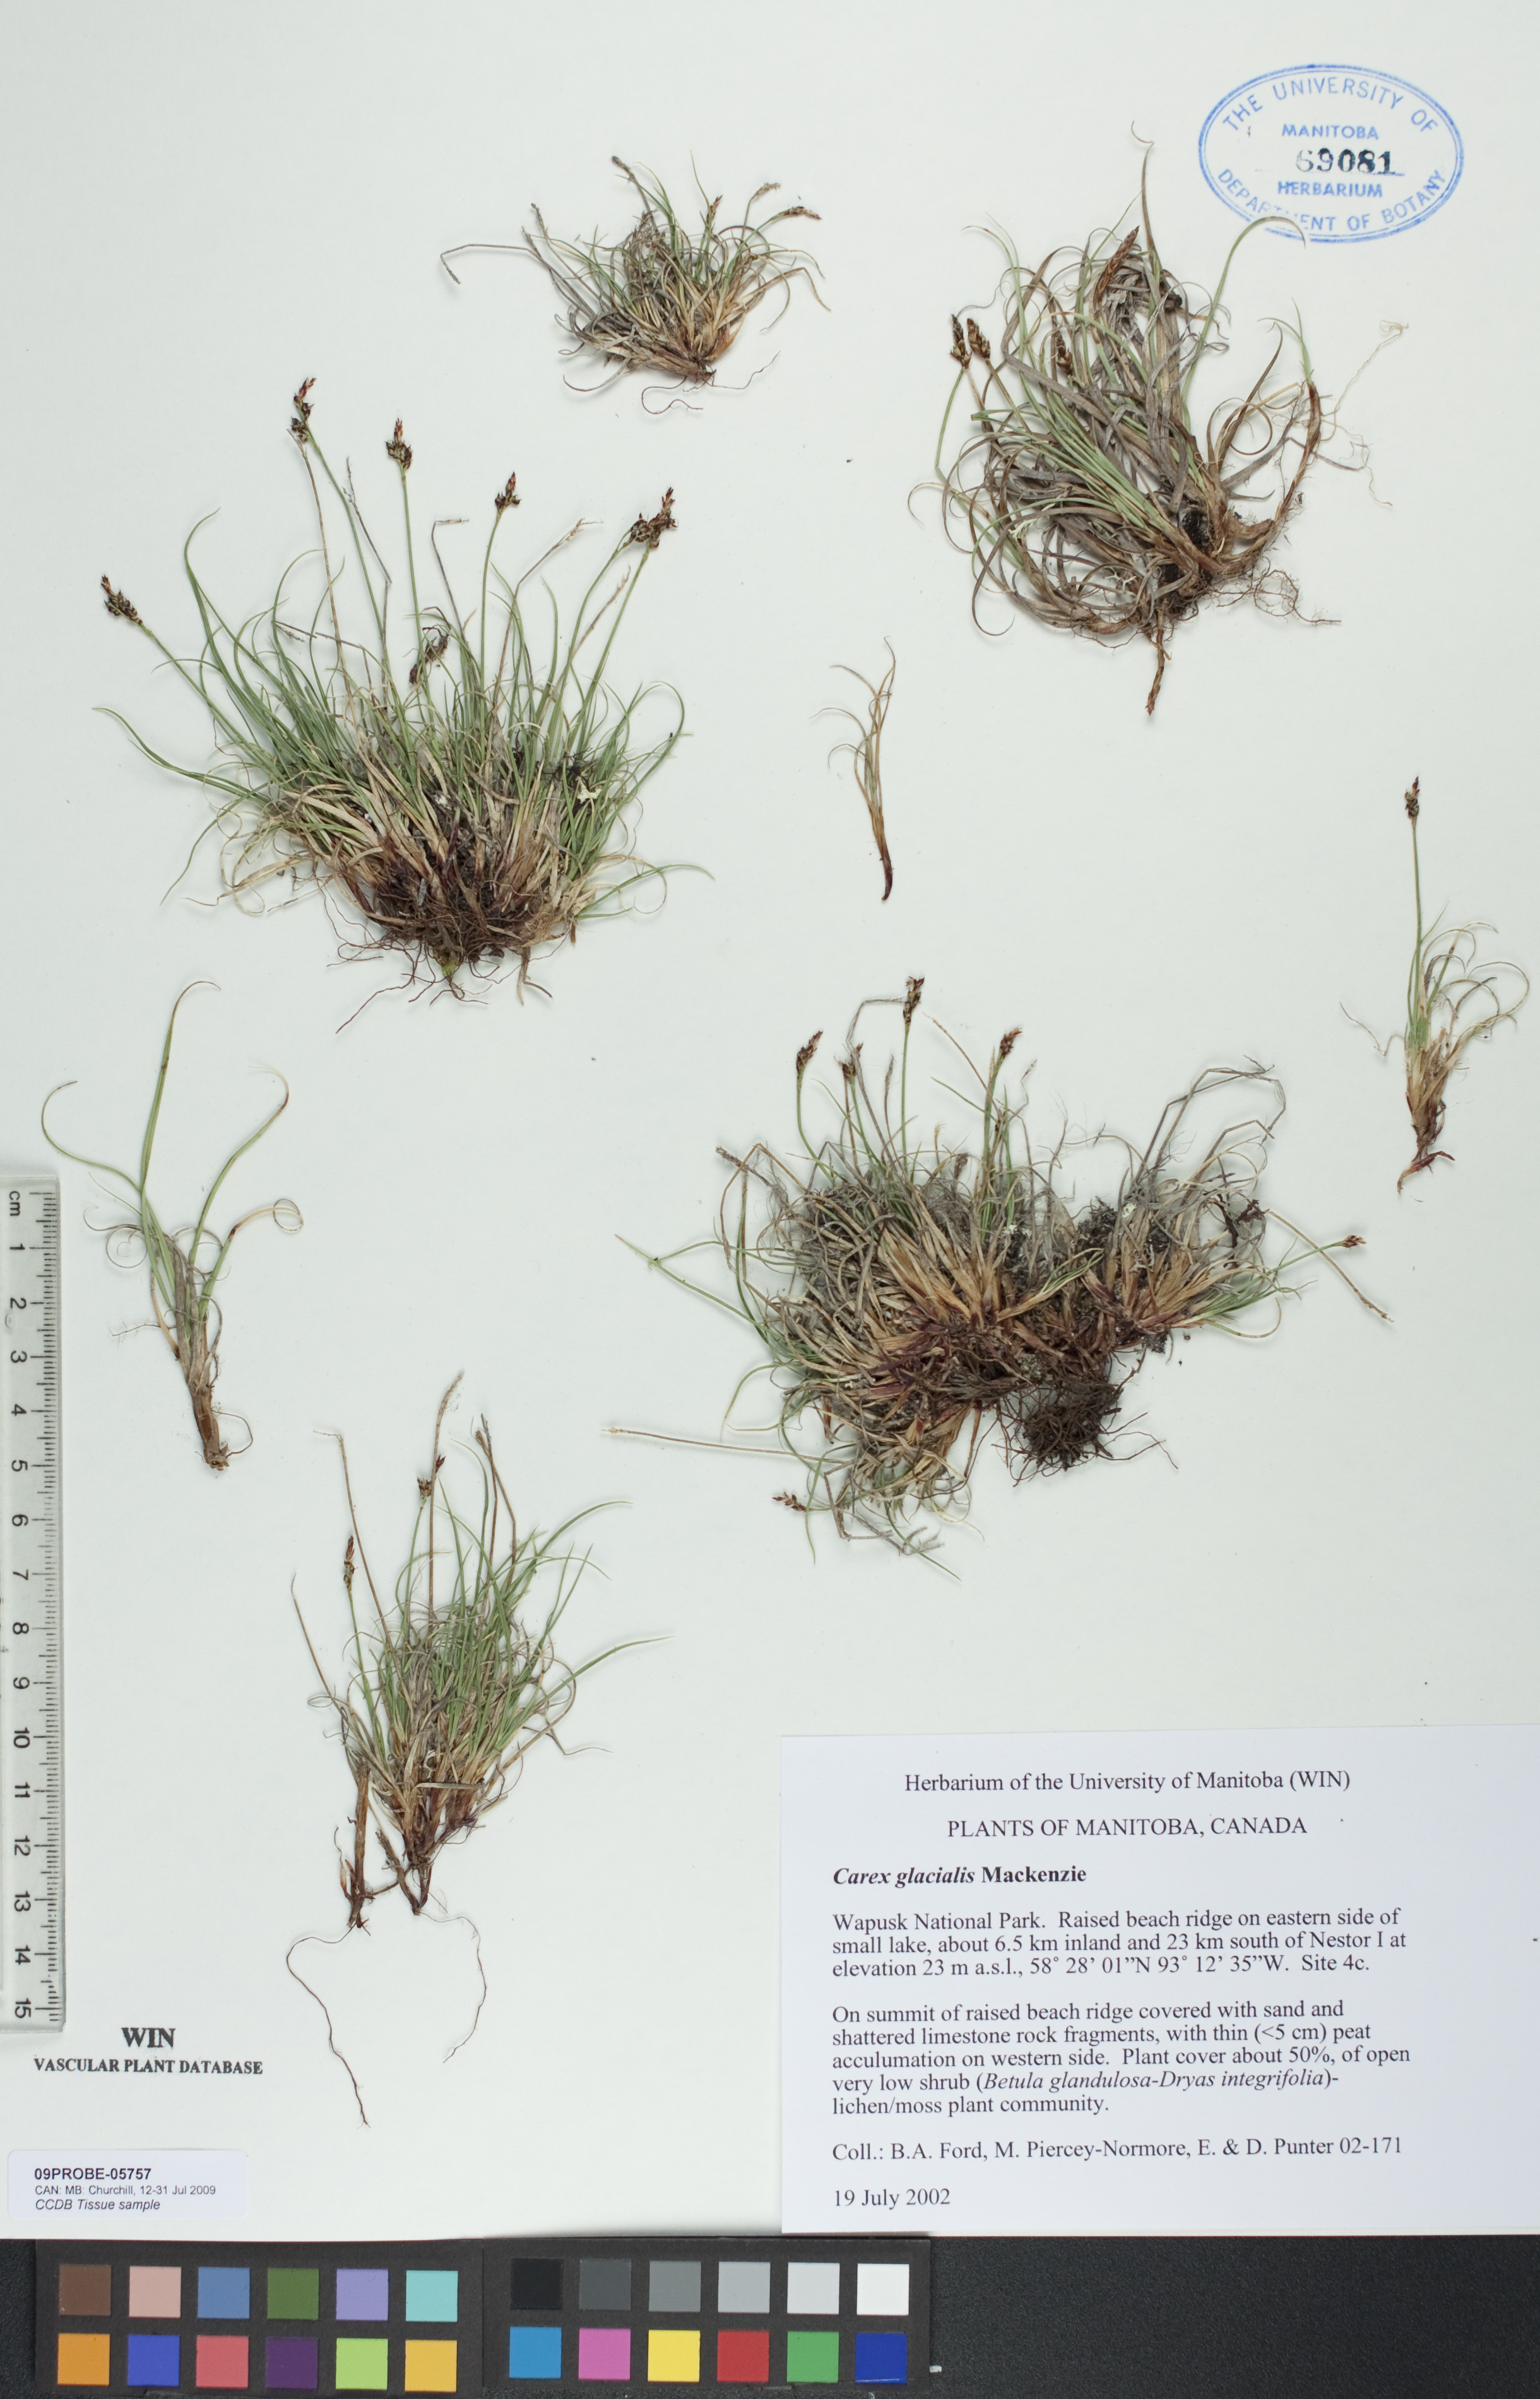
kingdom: Plantae
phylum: Tracheophyta
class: Liliopsida
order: Poales
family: Cyperaceae
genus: Carex
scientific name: Carex glacialis
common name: Newfoundland sedge
